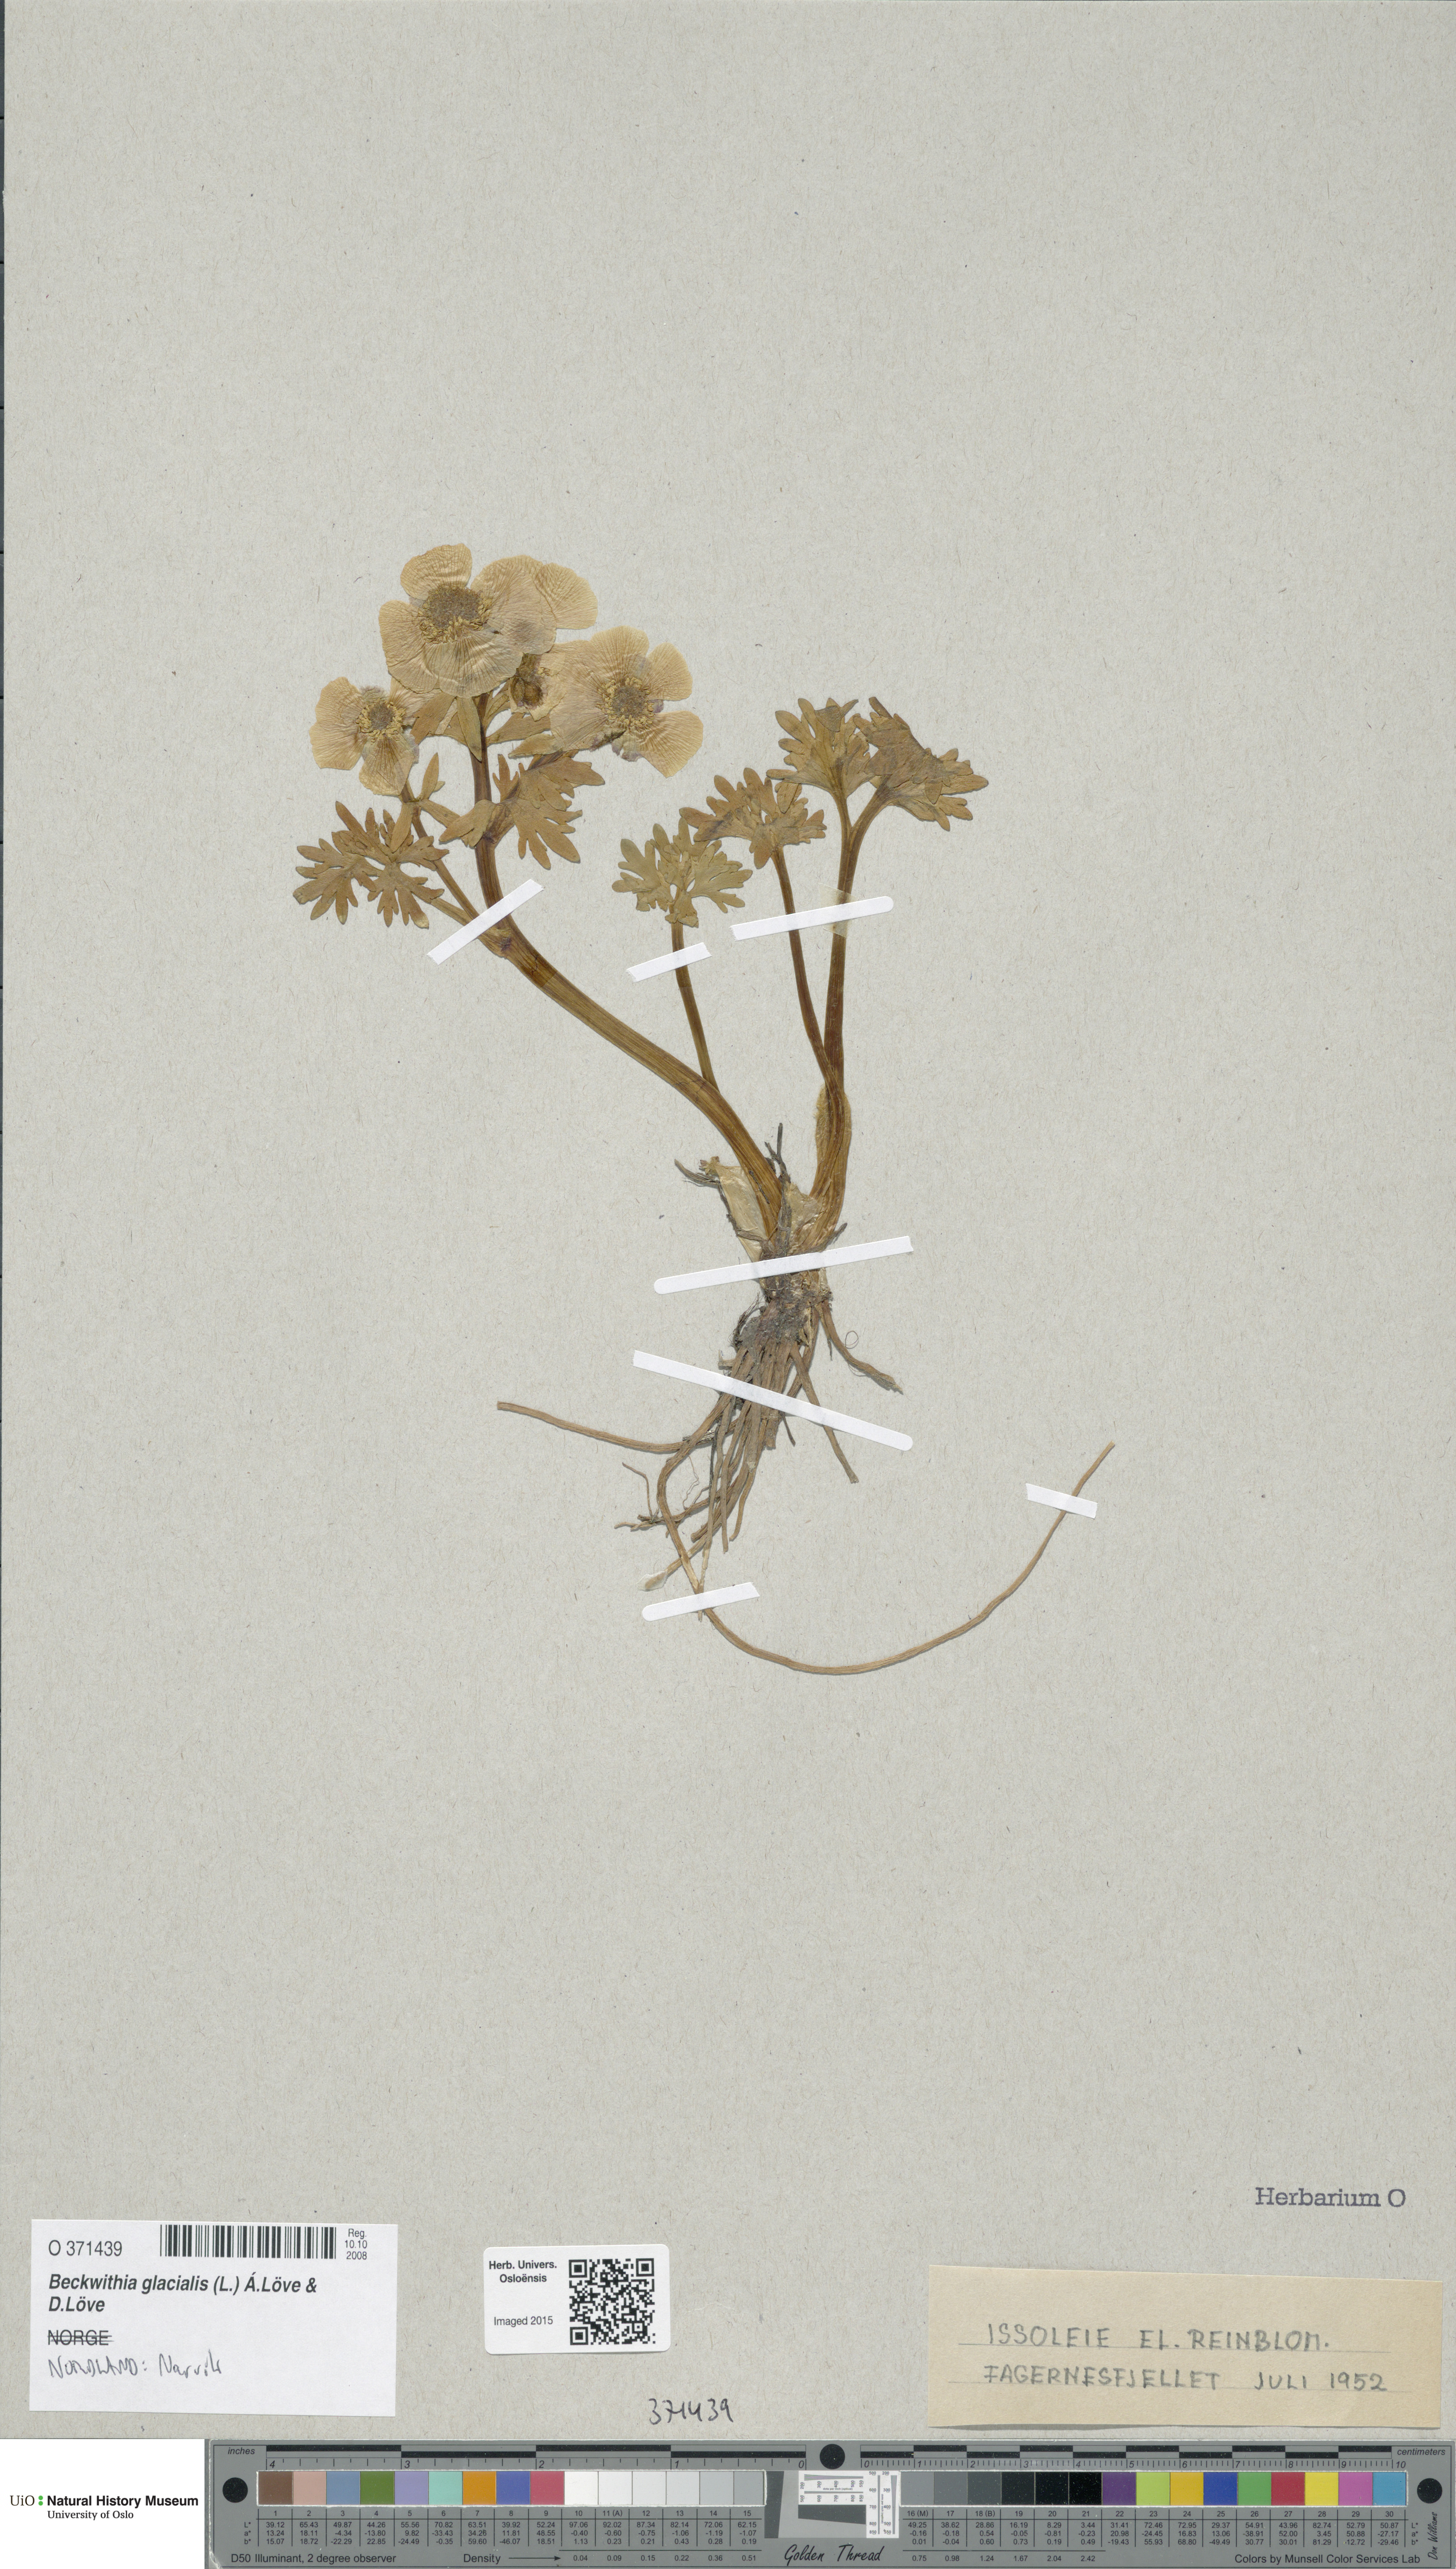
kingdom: Plantae
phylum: Tracheophyta
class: Magnoliopsida
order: Ranunculales
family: Ranunculaceae
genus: Ranunculus
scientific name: Ranunculus glacialis
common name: Glacier buttercup
